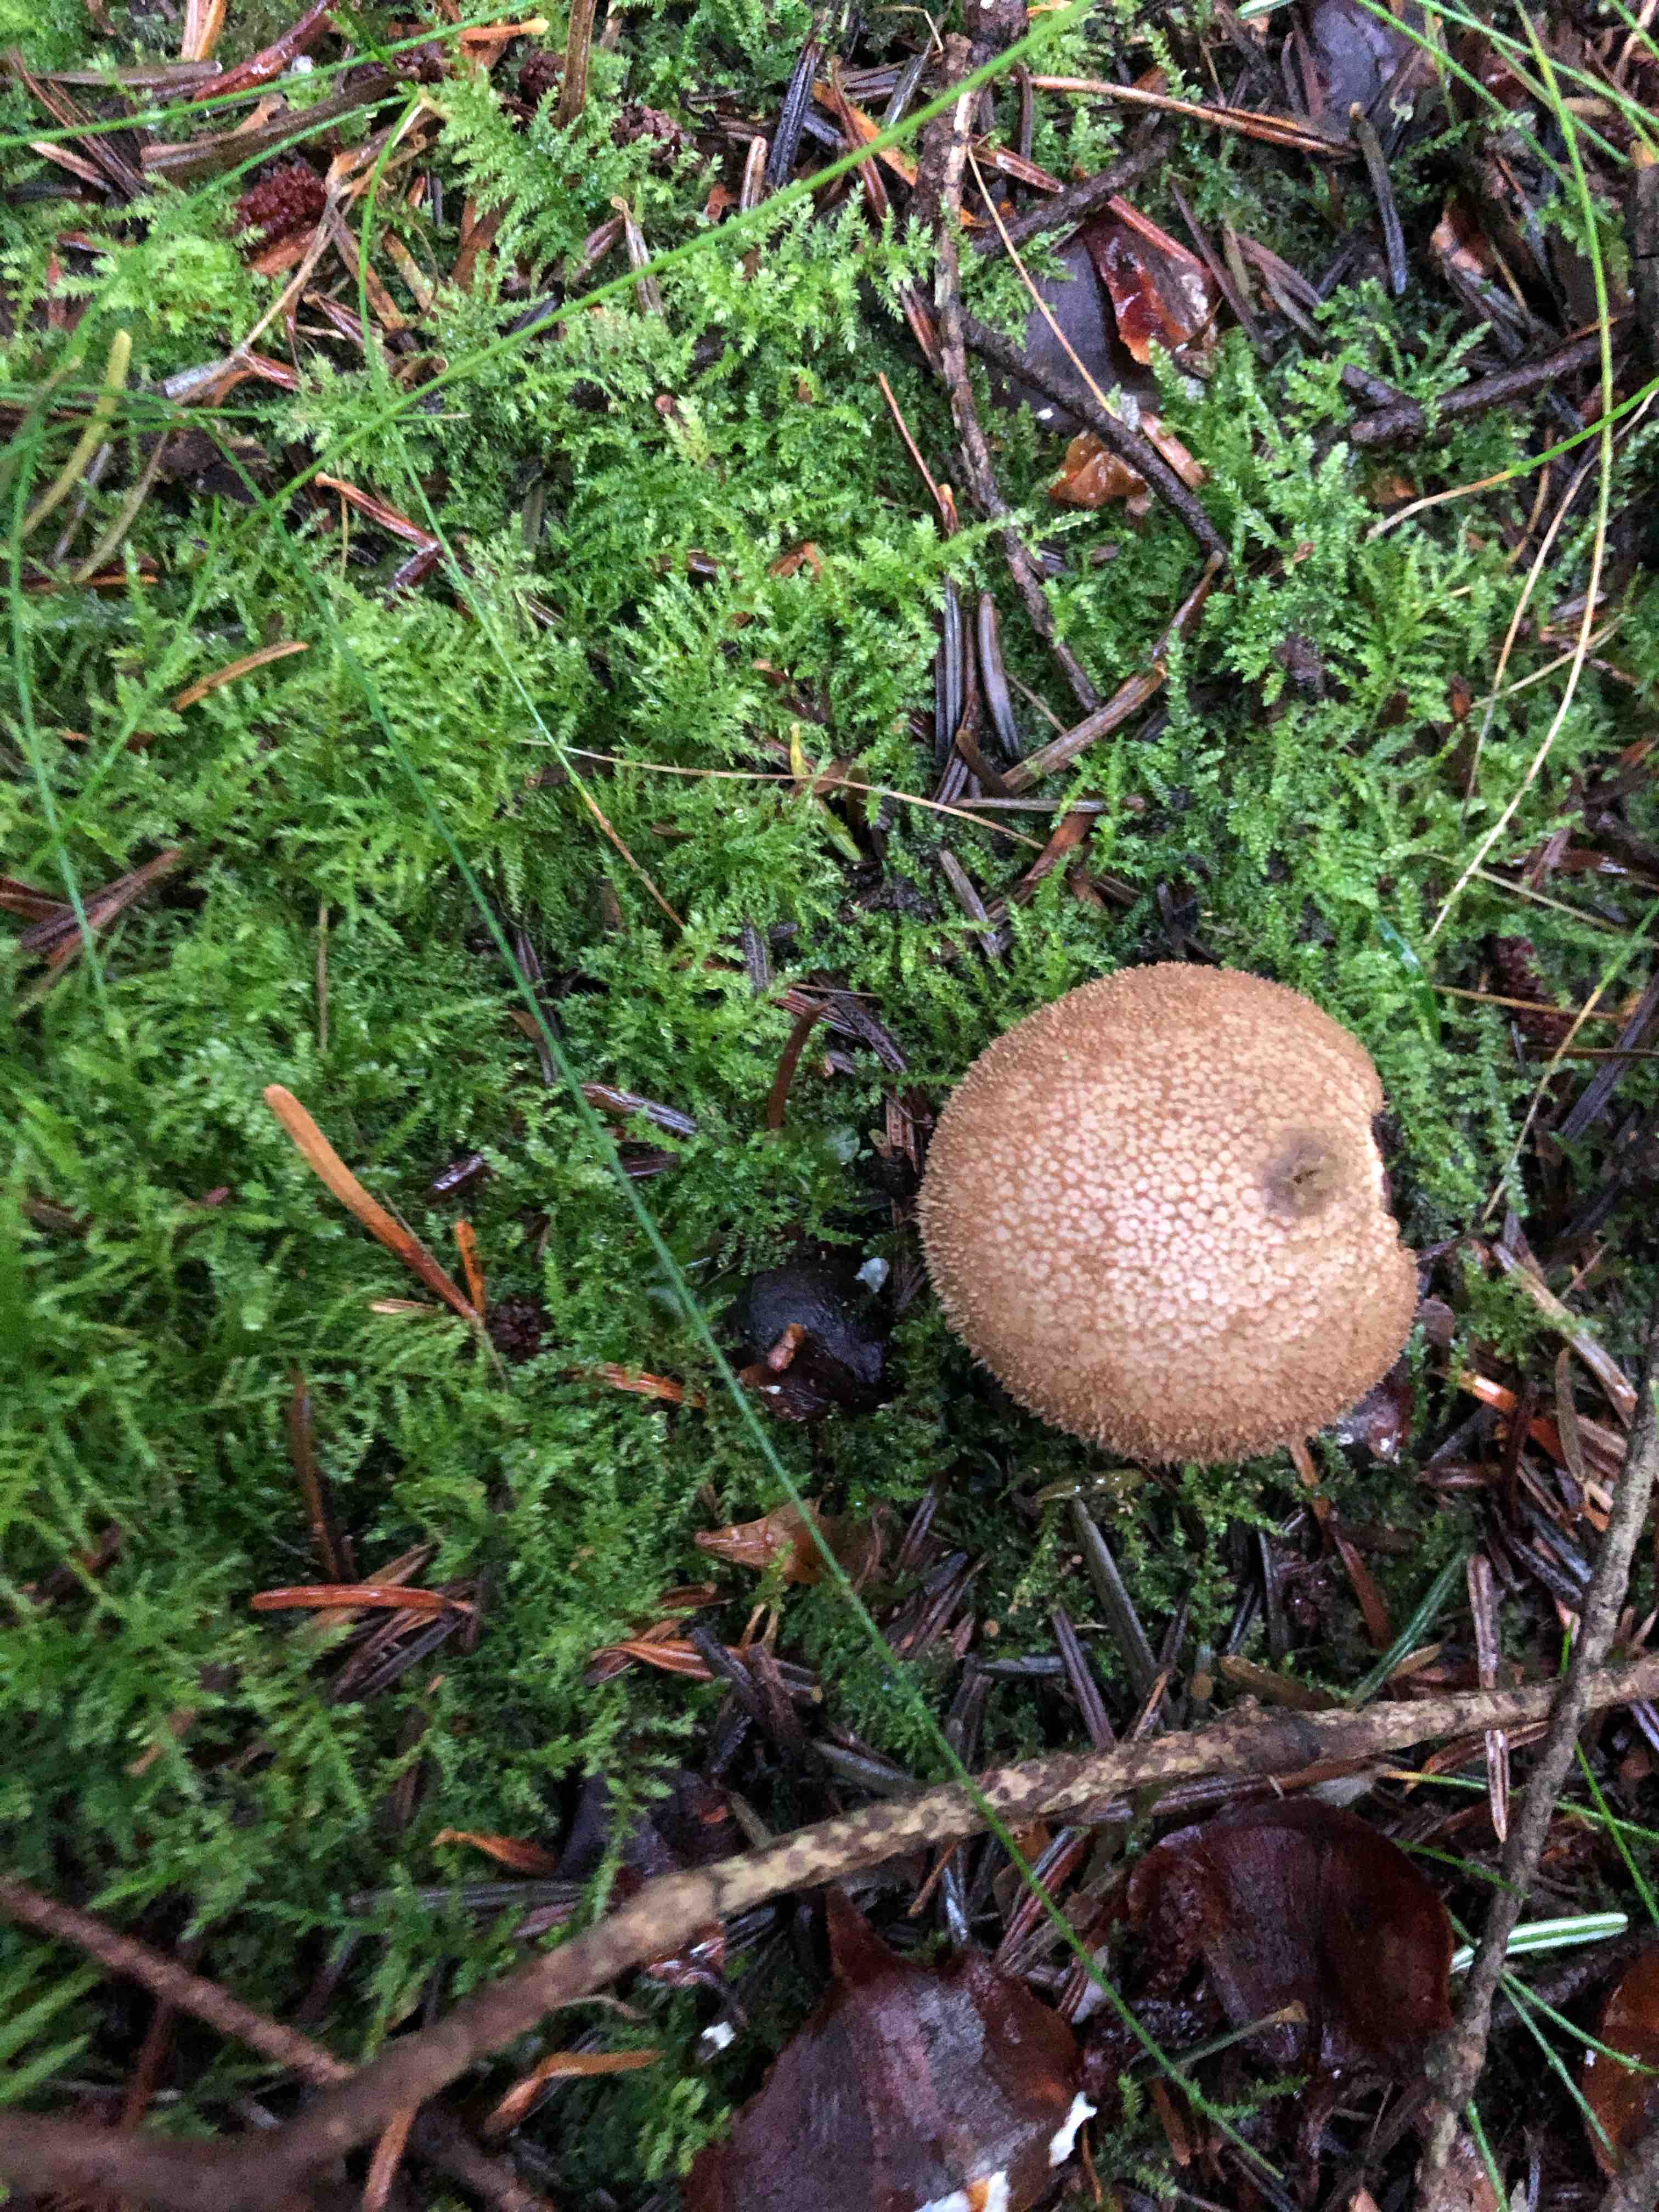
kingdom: Fungi
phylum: Basidiomycota
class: Agaricomycetes
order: Agaricales
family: Lycoperdaceae
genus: Lycoperdon
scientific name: Lycoperdon nigrescens
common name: sortagtig støvbold
